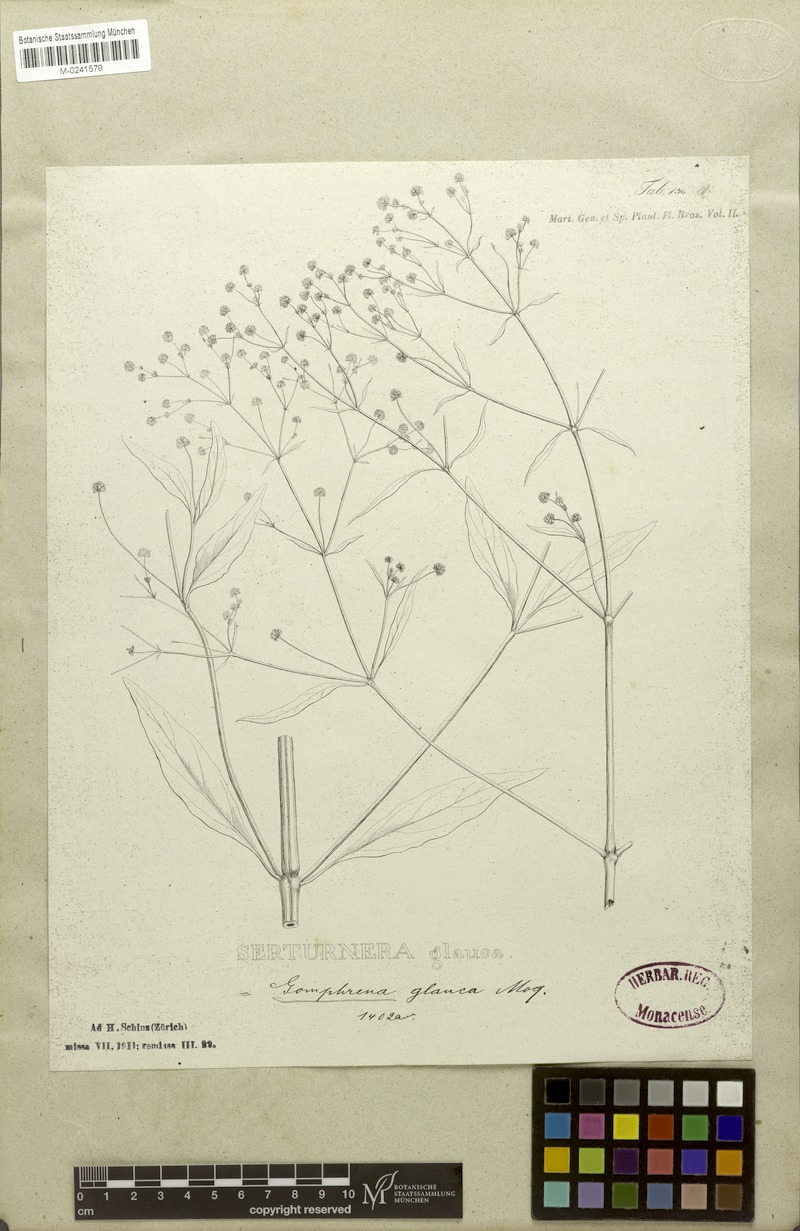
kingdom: Plantae
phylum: Tracheophyta
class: Magnoliopsida
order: Caryophyllales
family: Amaranthaceae
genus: Pfaffia
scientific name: Pfaffia glomerata
